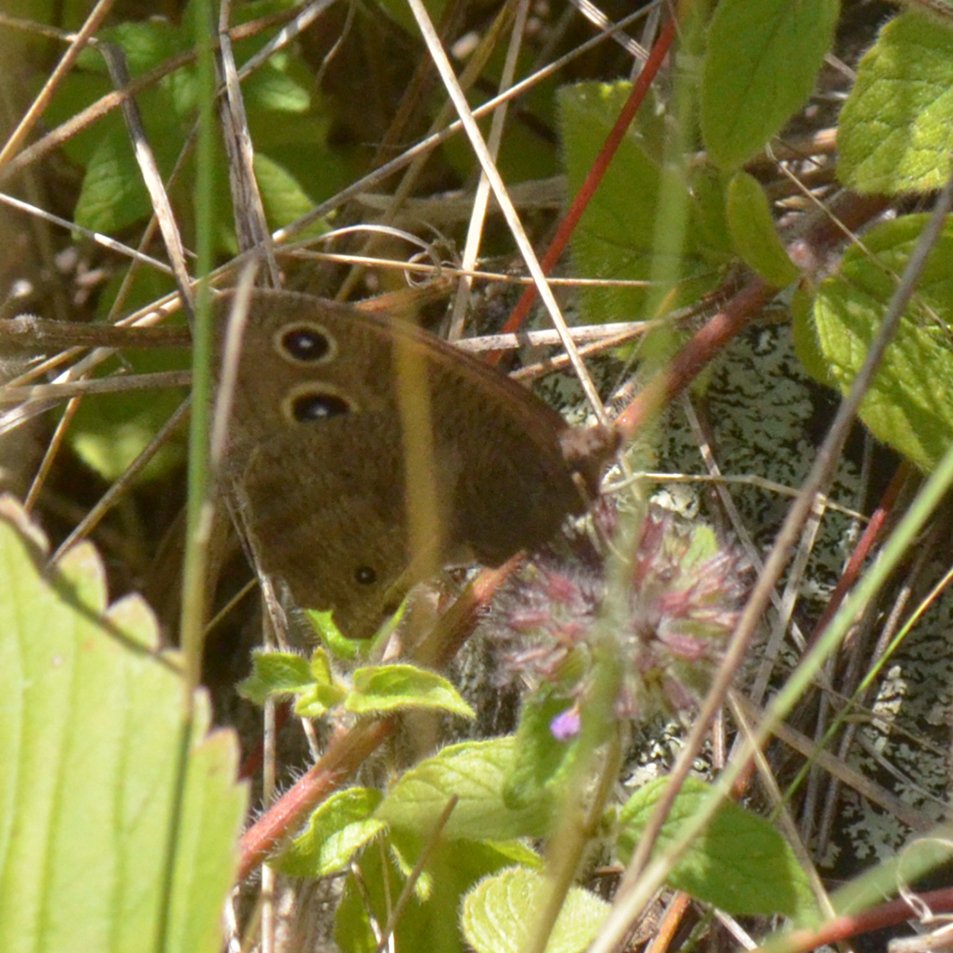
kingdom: Animalia
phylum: Arthropoda
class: Insecta
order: Lepidoptera
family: Nymphalidae
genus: Cercyonis
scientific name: Cercyonis pegala
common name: Common Wood-Nymph
